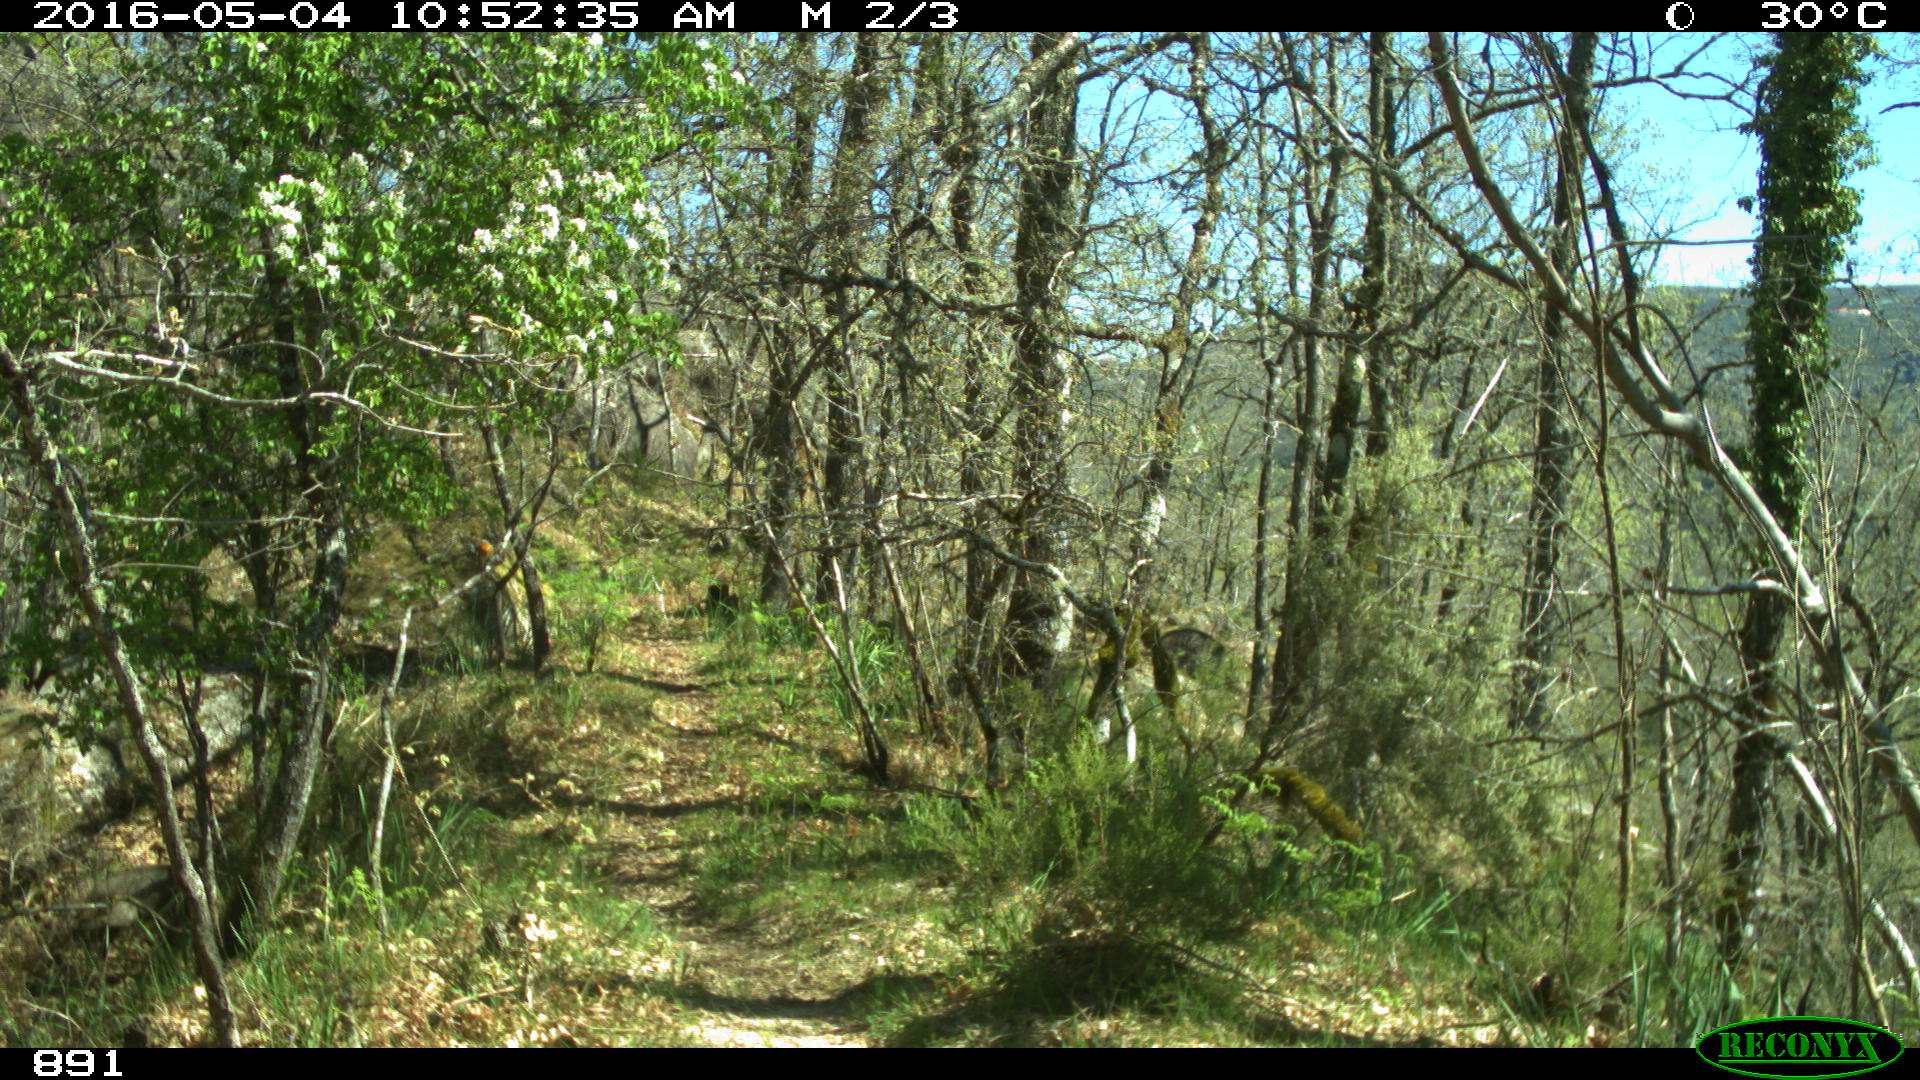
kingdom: Animalia
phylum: Chordata
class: Mammalia
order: Artiodactyla
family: Cervidae
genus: Capreolus
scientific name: Capreolus capreolus
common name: Western roe deer
